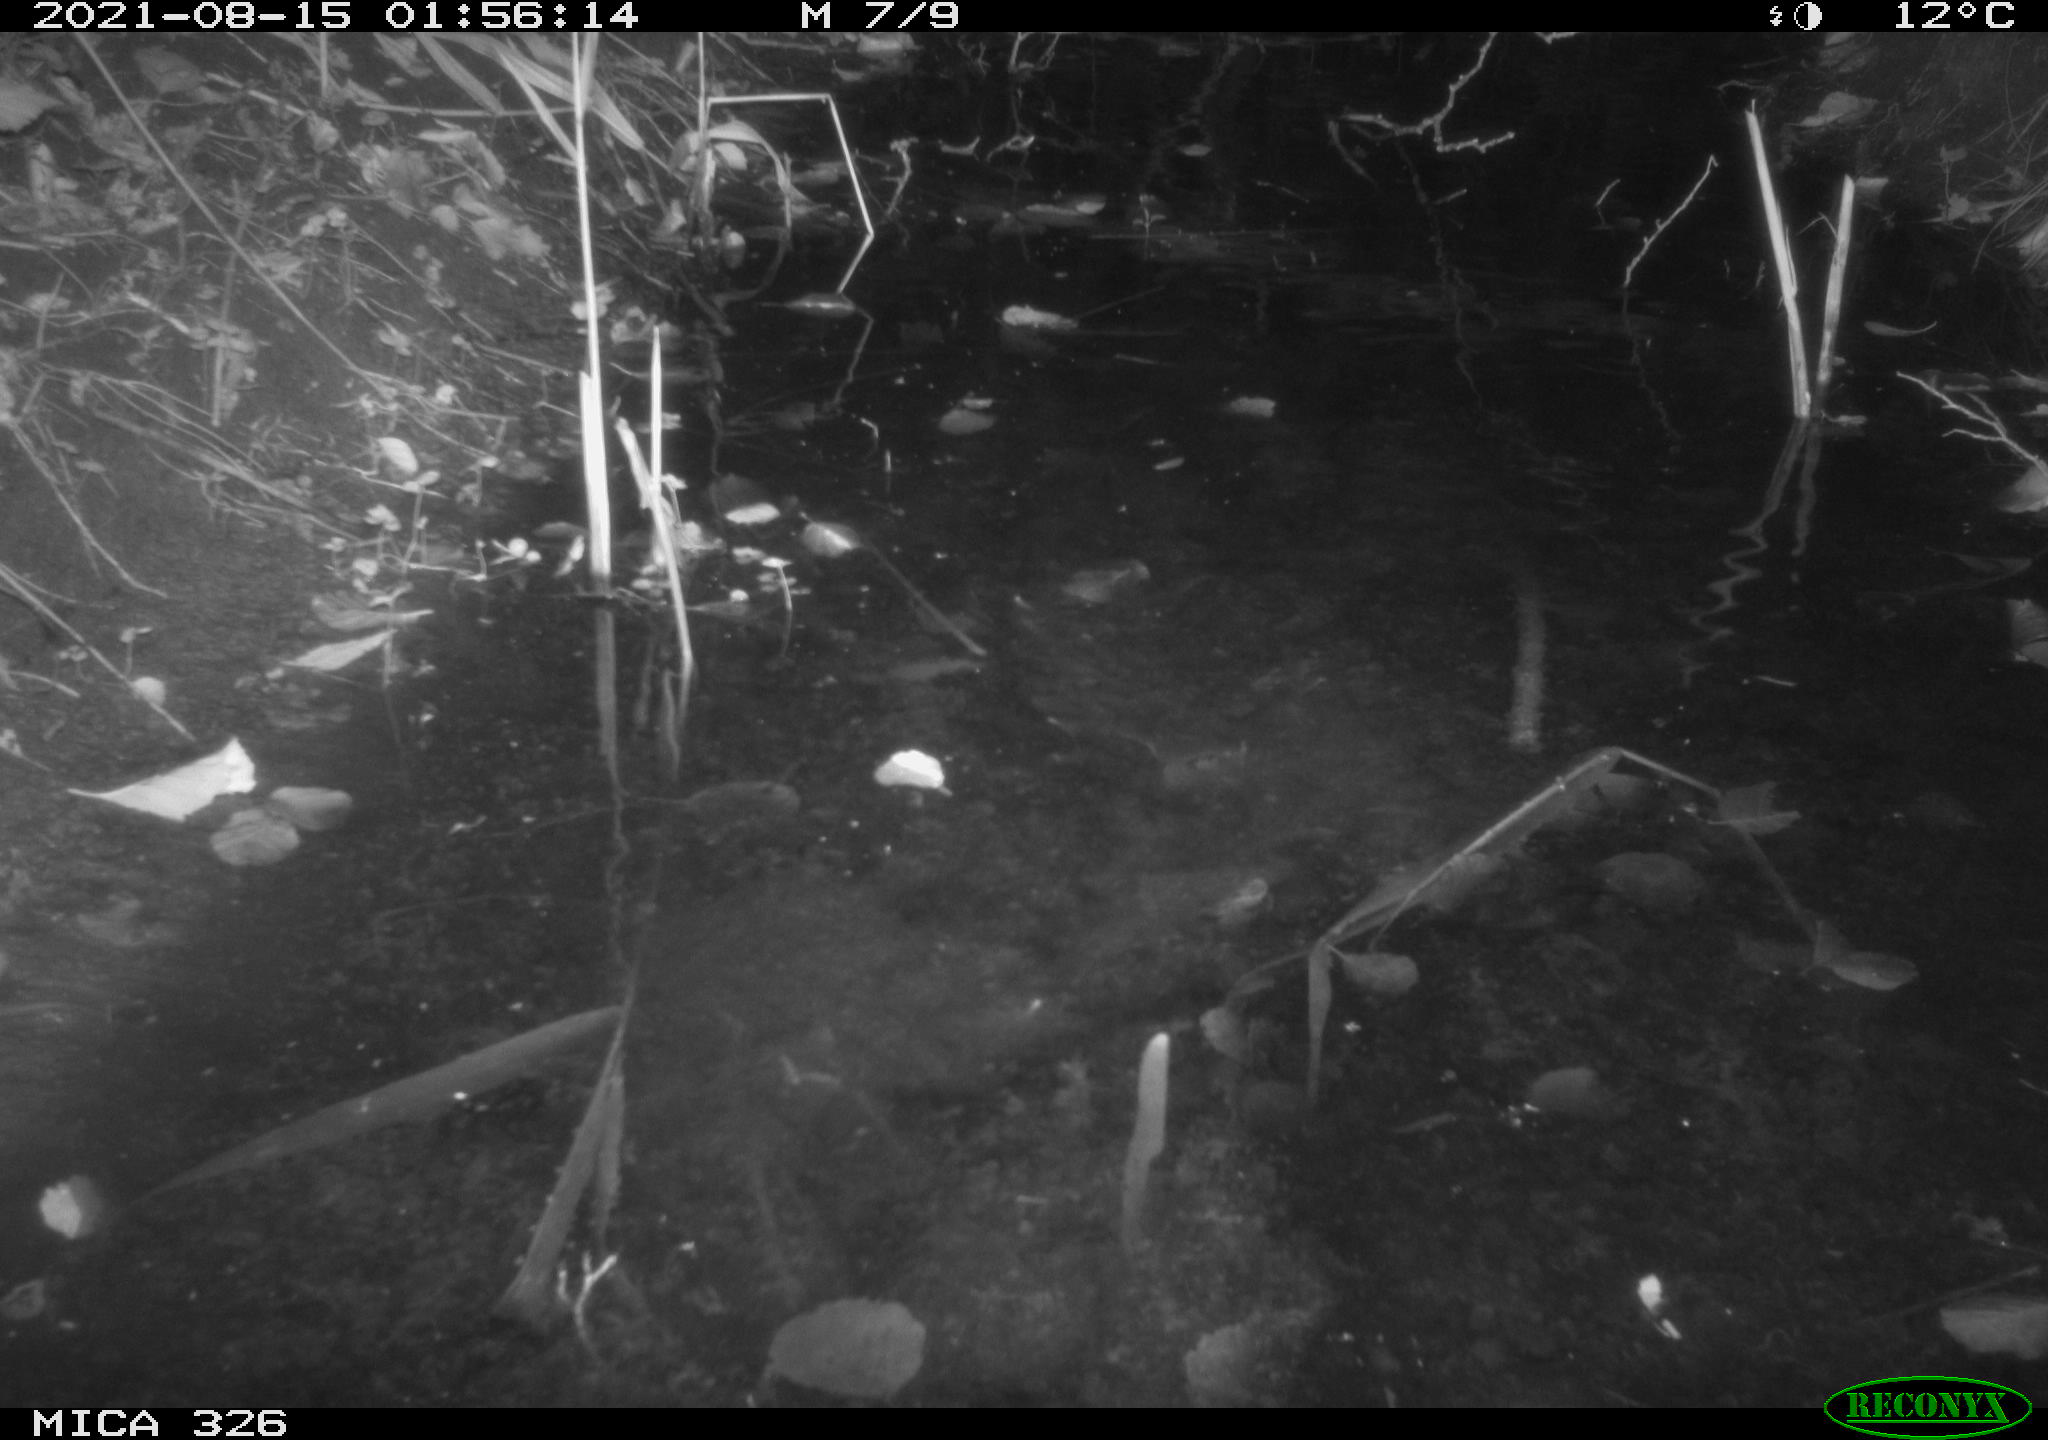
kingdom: Animalia
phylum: Chordata
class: Mammalia
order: Rodentia
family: Myocastoridae
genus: Myocastor
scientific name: Myocastor coypus
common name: Coypu
